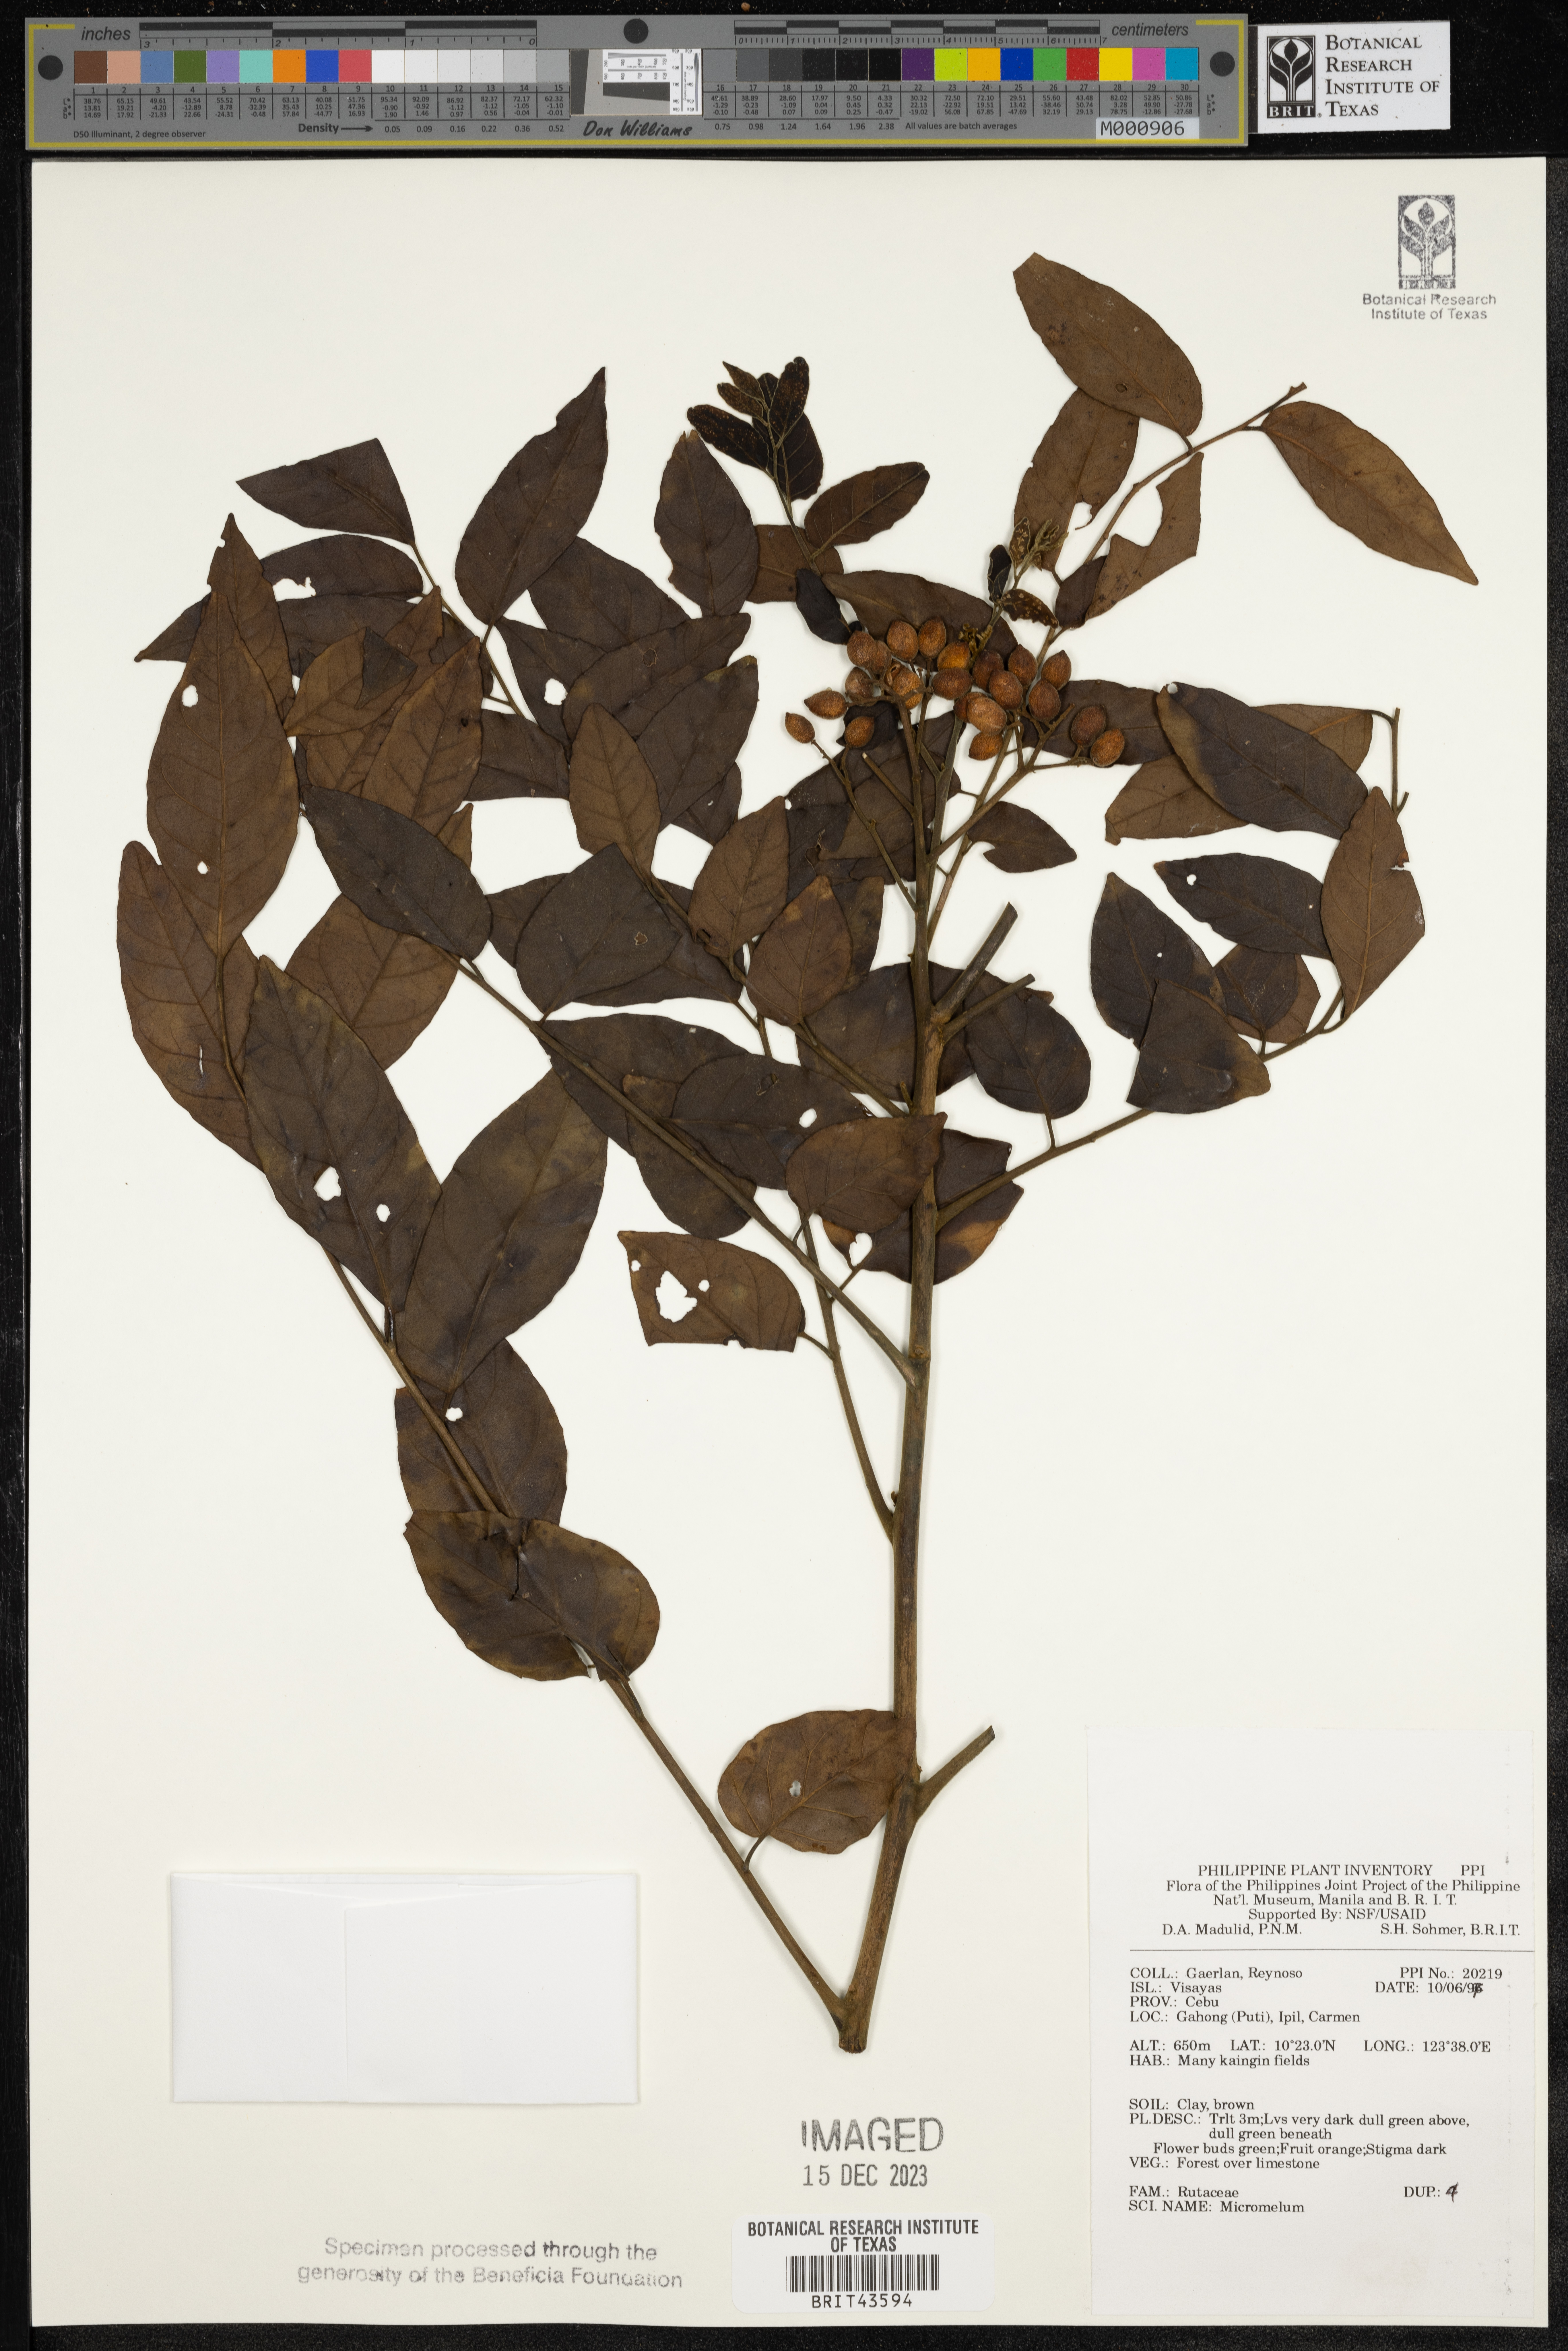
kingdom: Plantae
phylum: Tracheophyta
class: Magnoliopsida
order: Sapindales
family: Rutaceae
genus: Micromelum
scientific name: Micromelum
